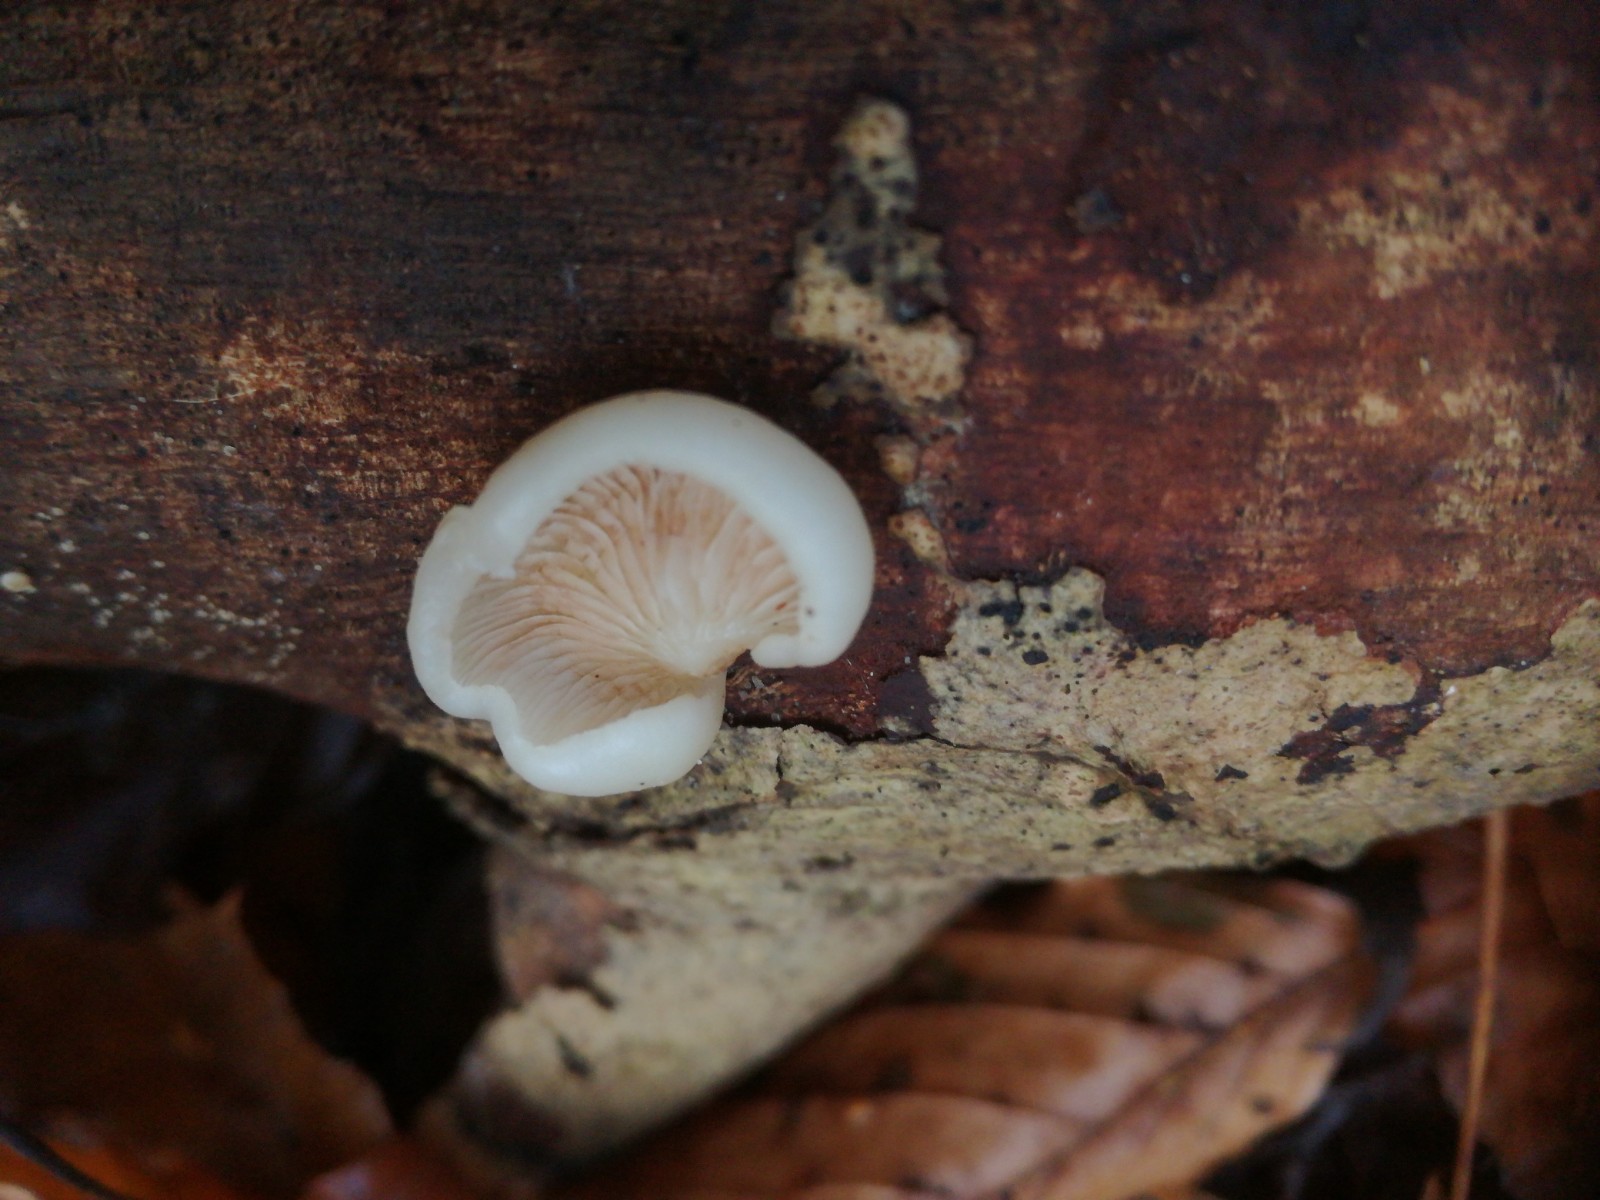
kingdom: Fungi
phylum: Basidiomycota
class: Agaricomycetes
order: Agaricales
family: Crepidotaceae
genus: Crepidotus
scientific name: Crepidotus mollis
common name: blød muslingesvamp
